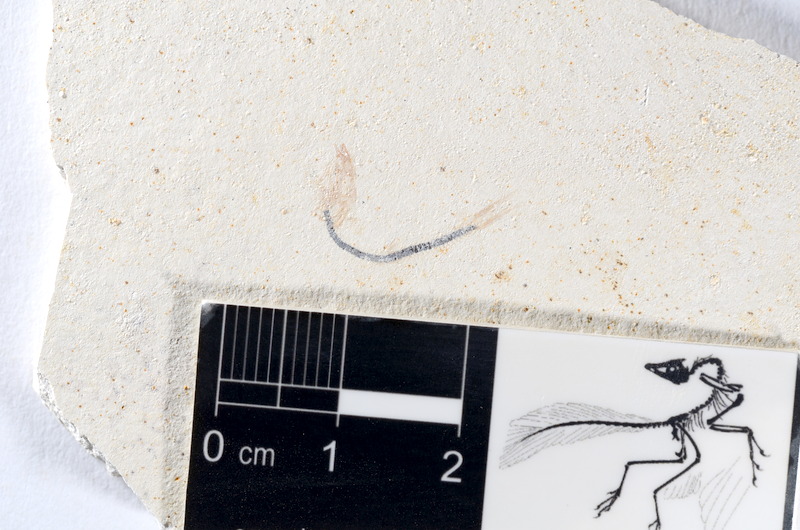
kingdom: Animalia
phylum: Chordata
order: Salmoniformes
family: Orthogonikleithridae
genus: Orthogonikleithrus
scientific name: Orthogonikleithrus hoelli
